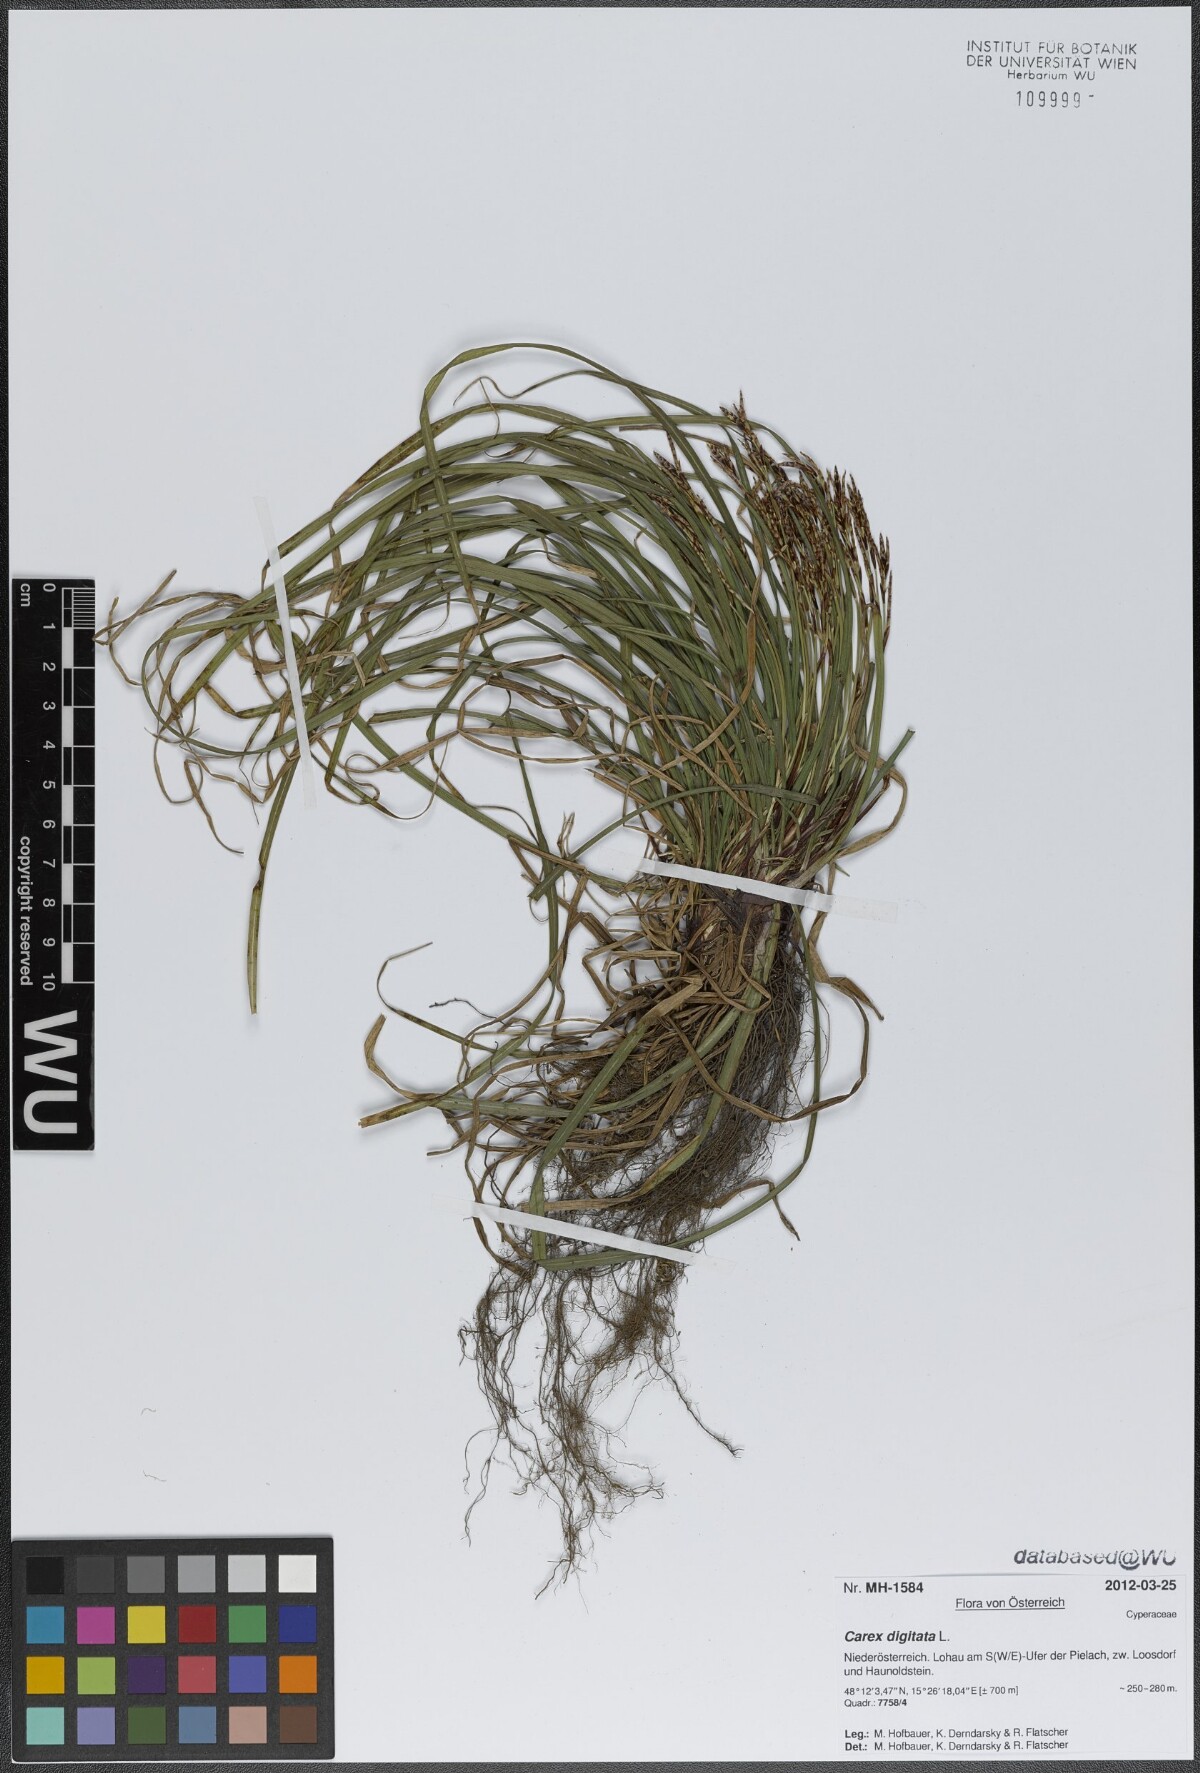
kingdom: Plantae
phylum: Tracheophyta
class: Liliopsida
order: Poales
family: Cyperaceae
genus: Carex
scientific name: Carex digitata
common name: Fingered sedge
